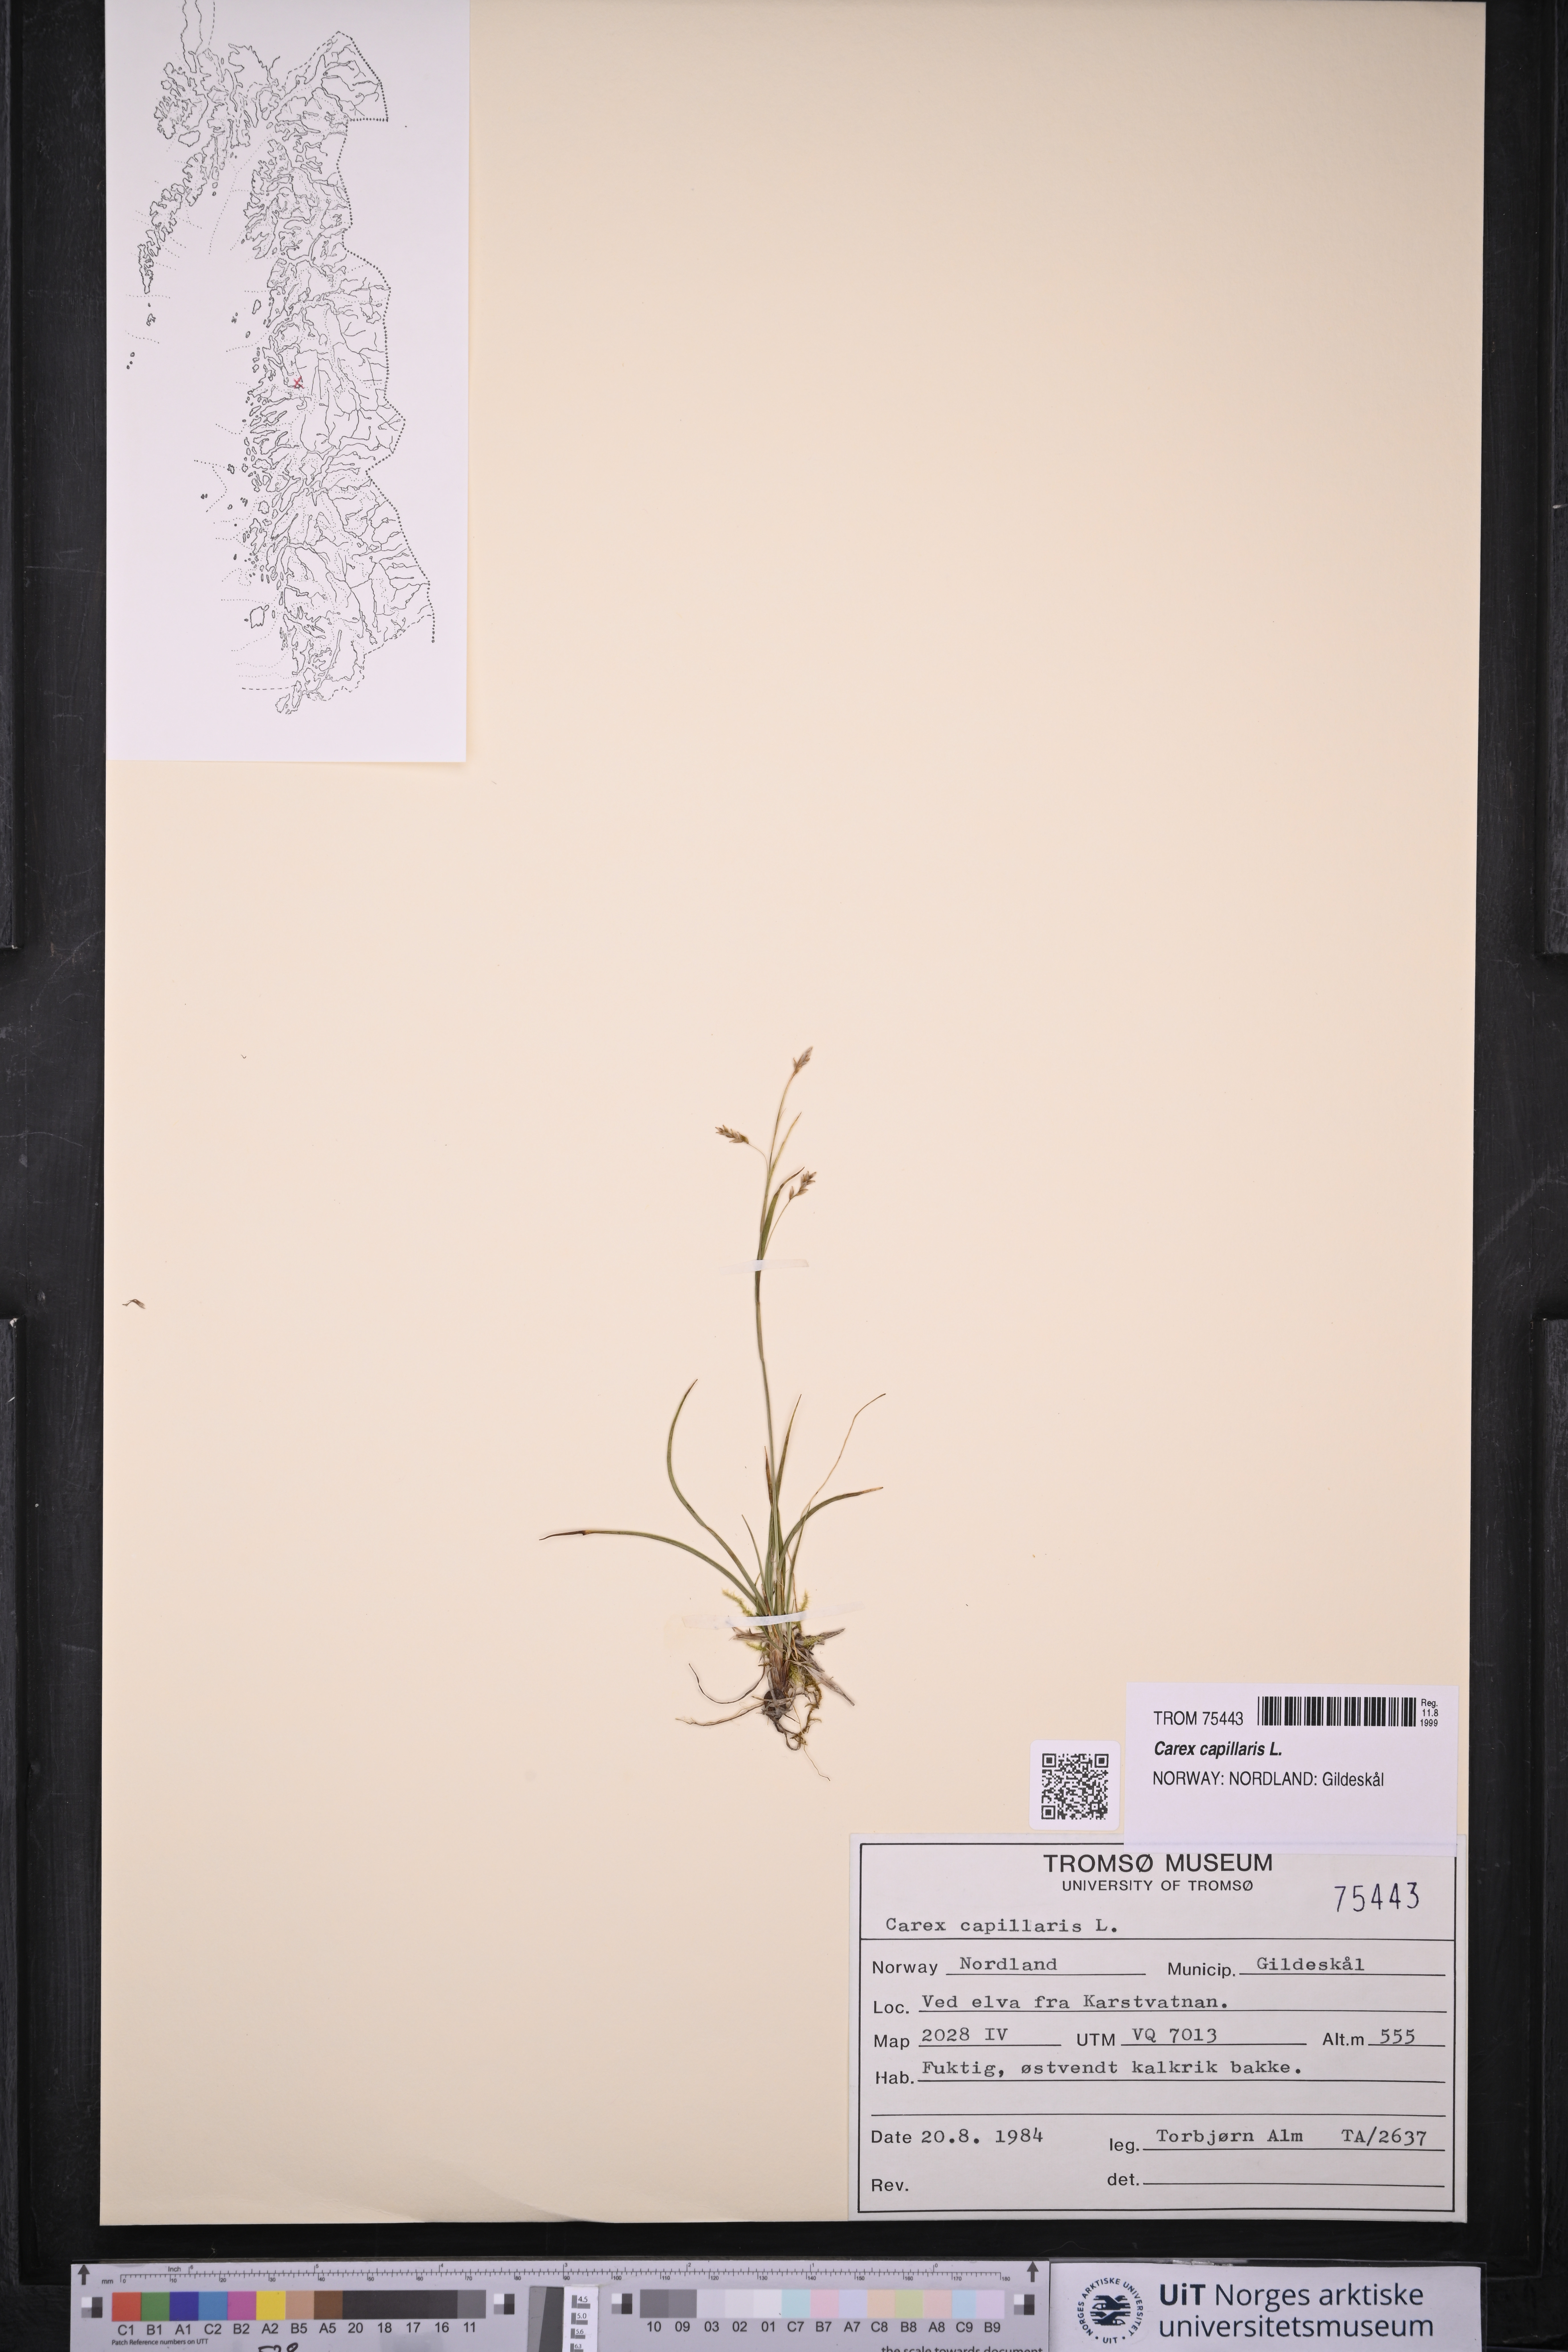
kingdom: Plantae
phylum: Tracheophyta
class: Liliopsida
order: Poales
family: Cyperaceae
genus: Carex
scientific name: Carex capillaris
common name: Hair sedge
